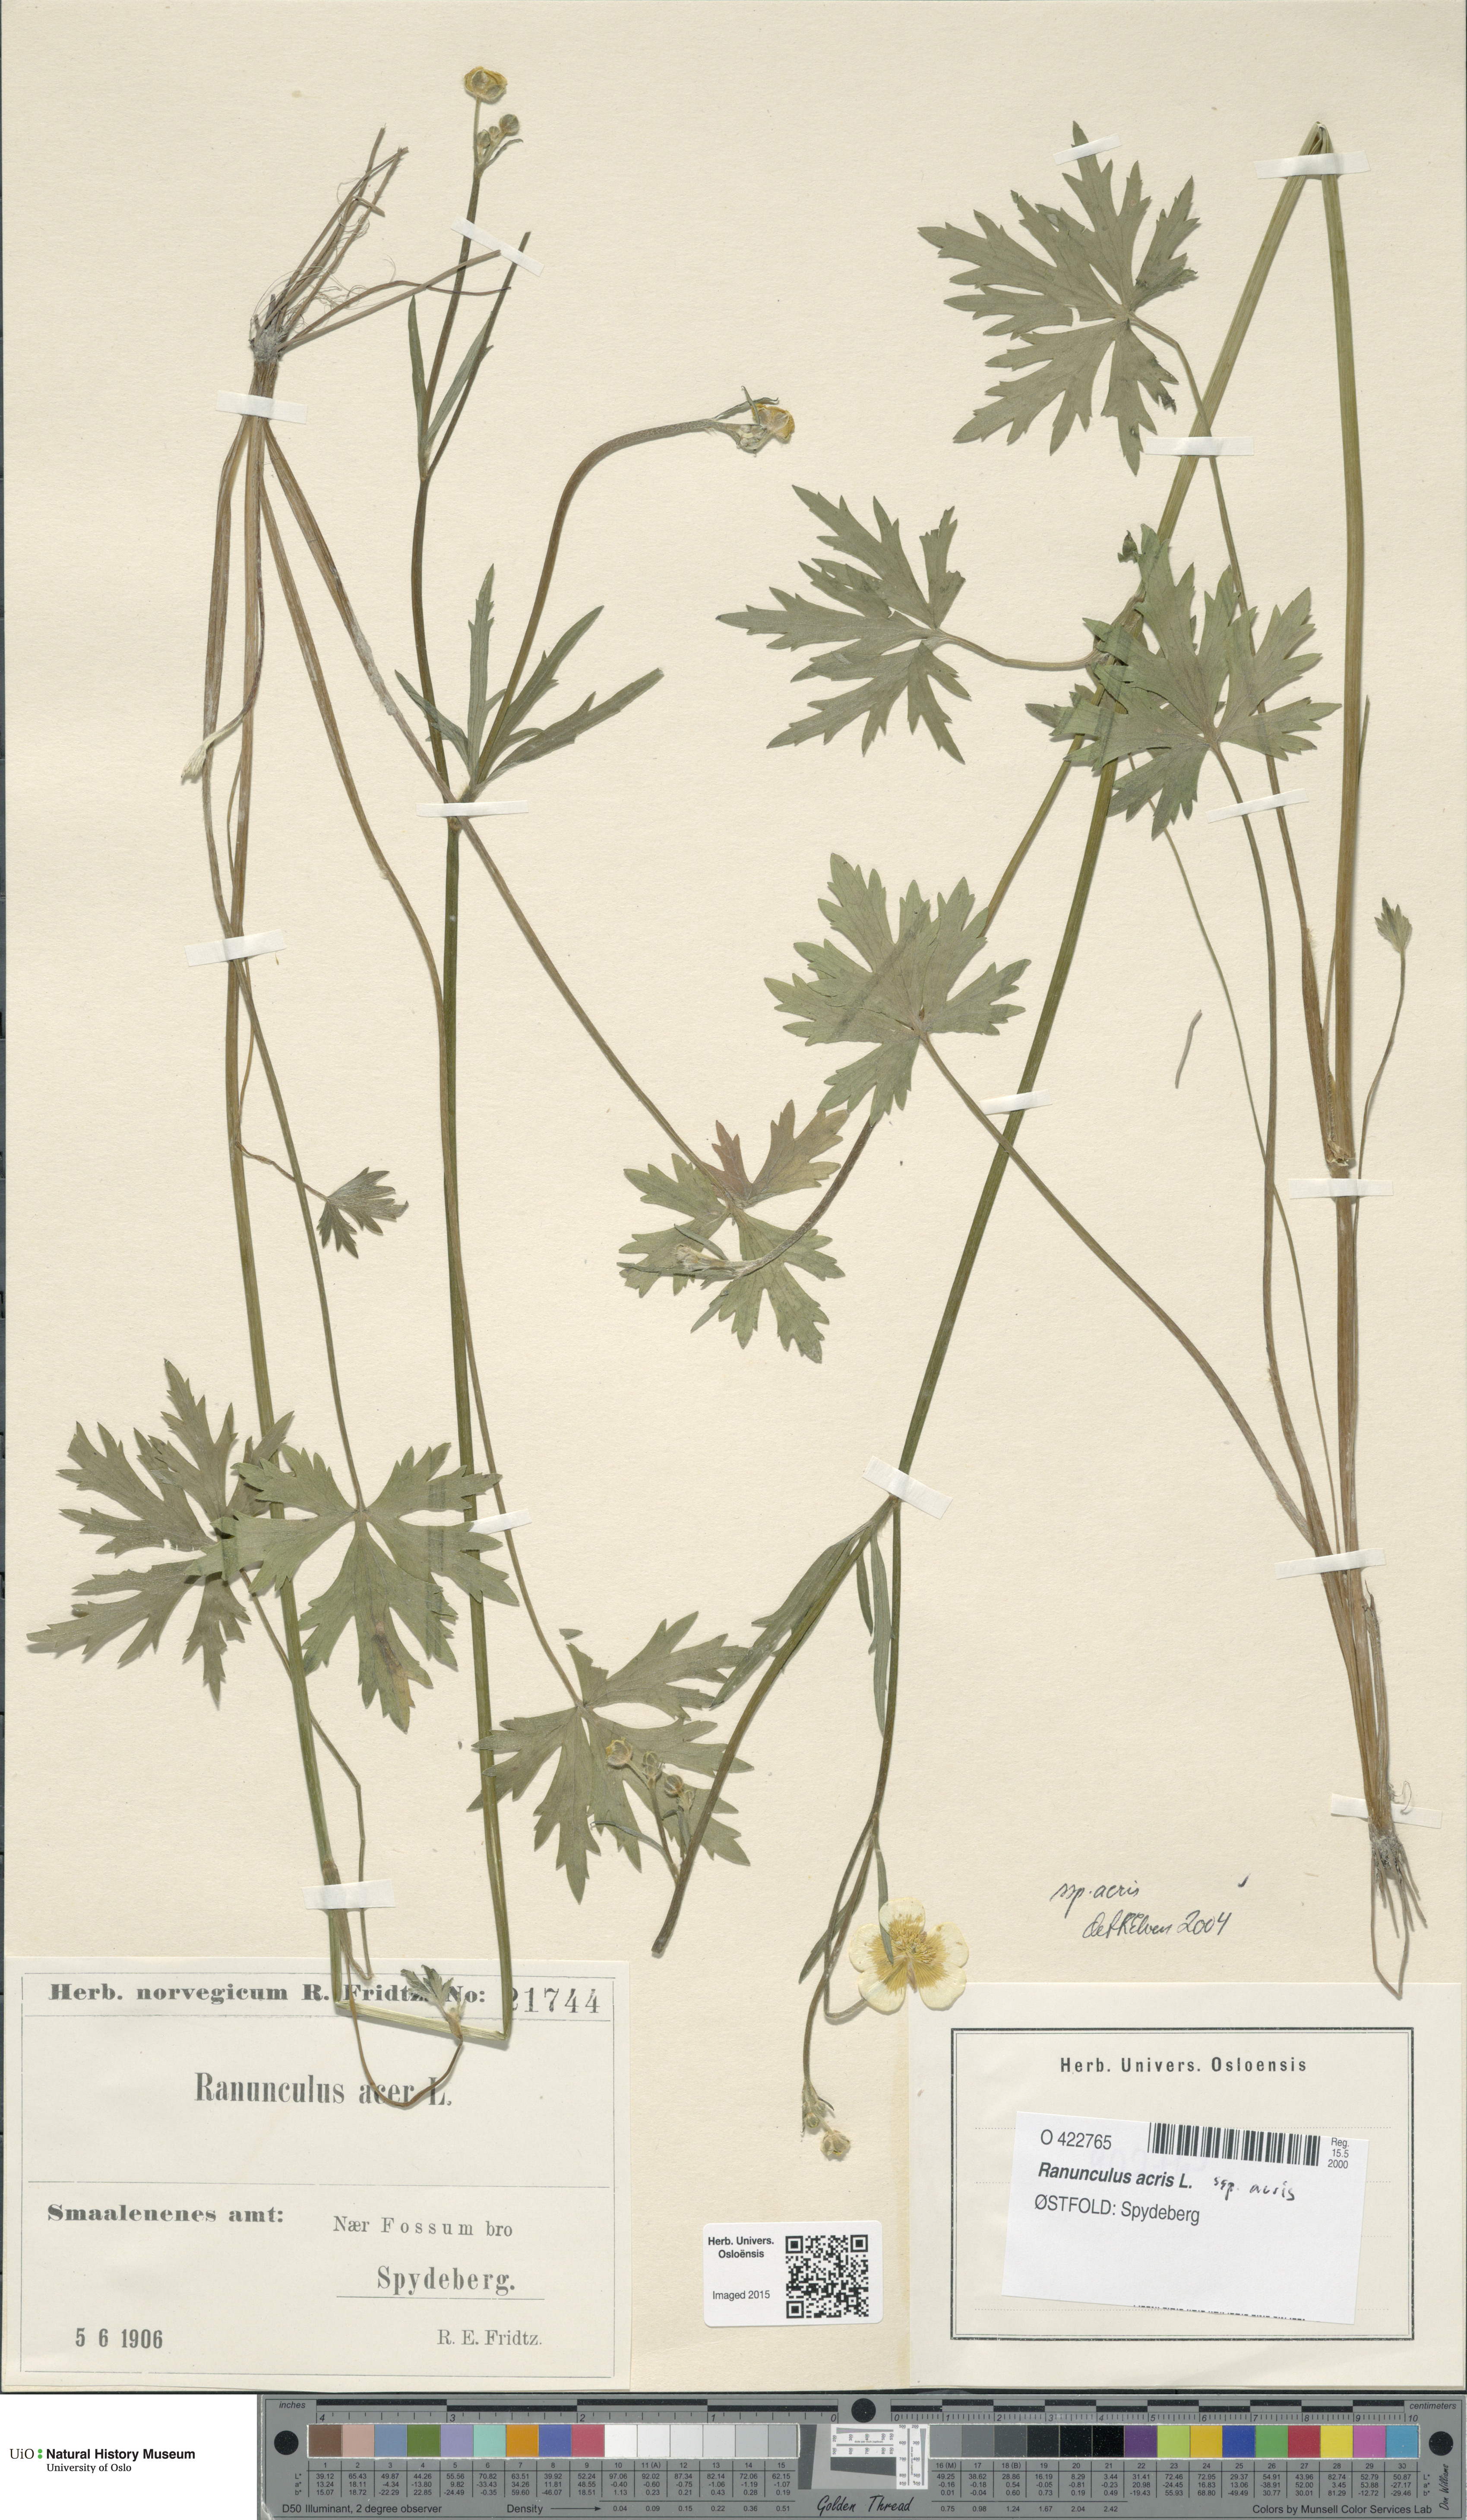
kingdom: Plantae
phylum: Tracheophyta
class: Magnoliopsida
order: Ranunculales
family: Ranunculaceae
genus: Ranunculus
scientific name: Ranunculus acris
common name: Meadow buttercup
